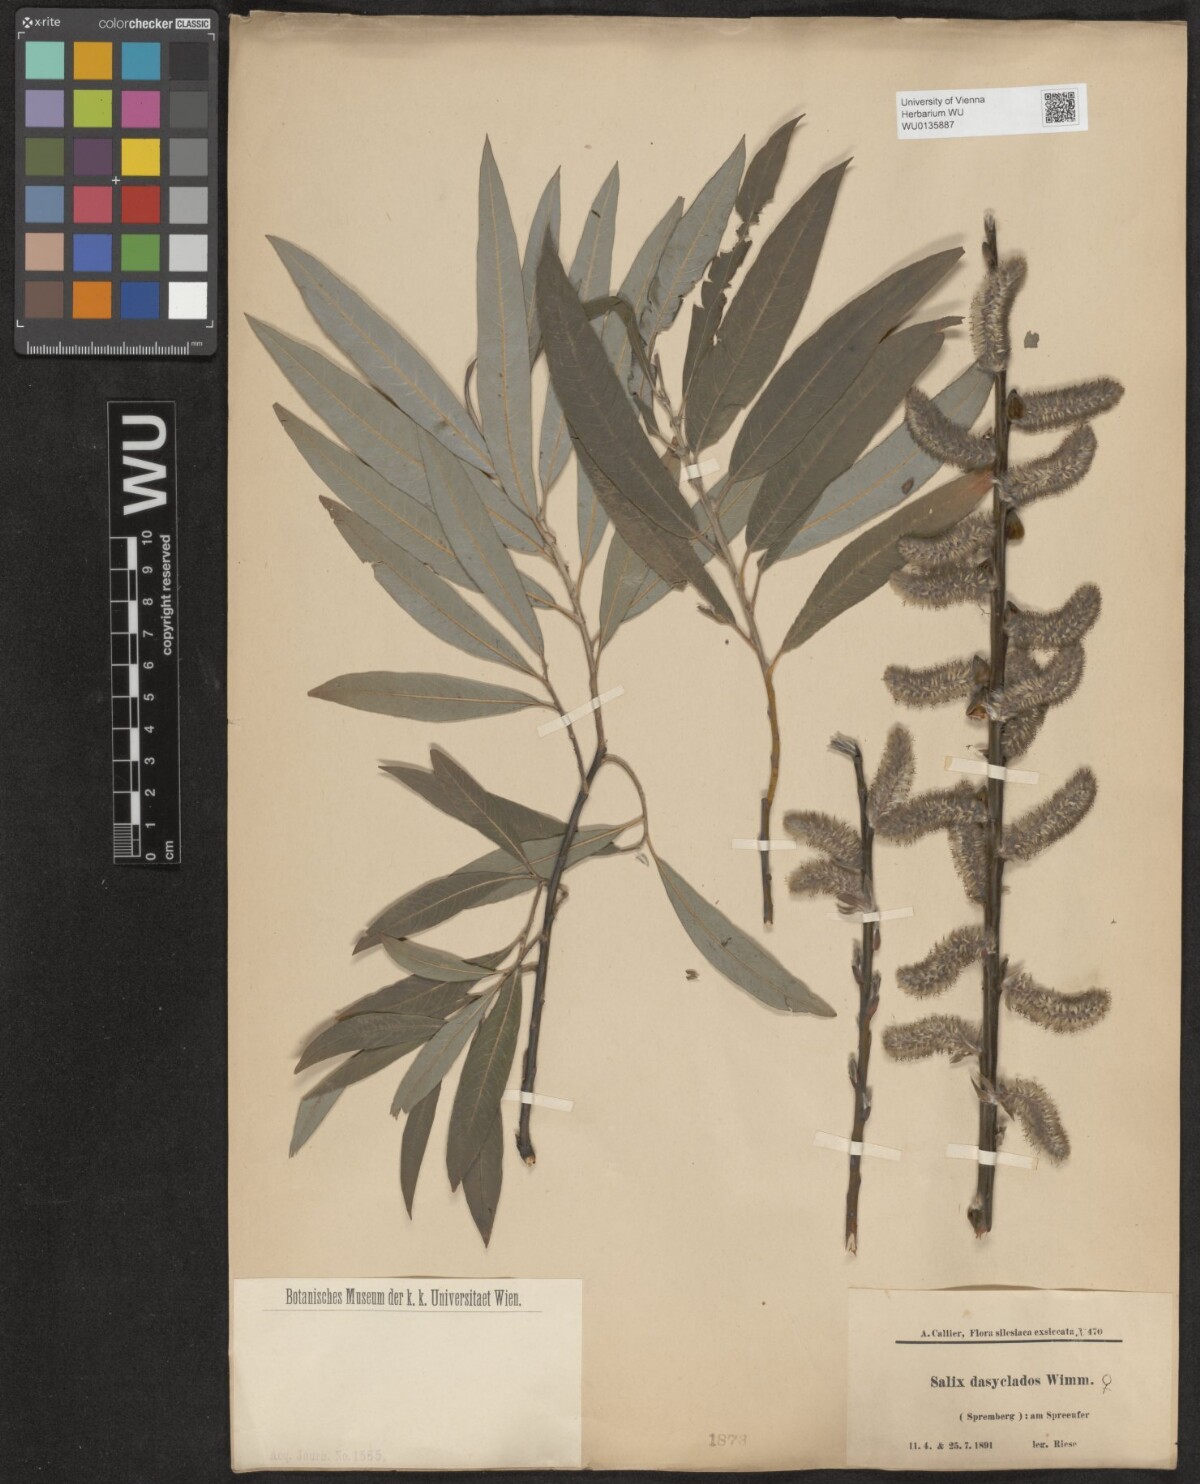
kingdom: Plantae
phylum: Tracheophyta
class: Magnoliopsida
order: Malpighiales
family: Salicaceae
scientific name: Salicaceae
